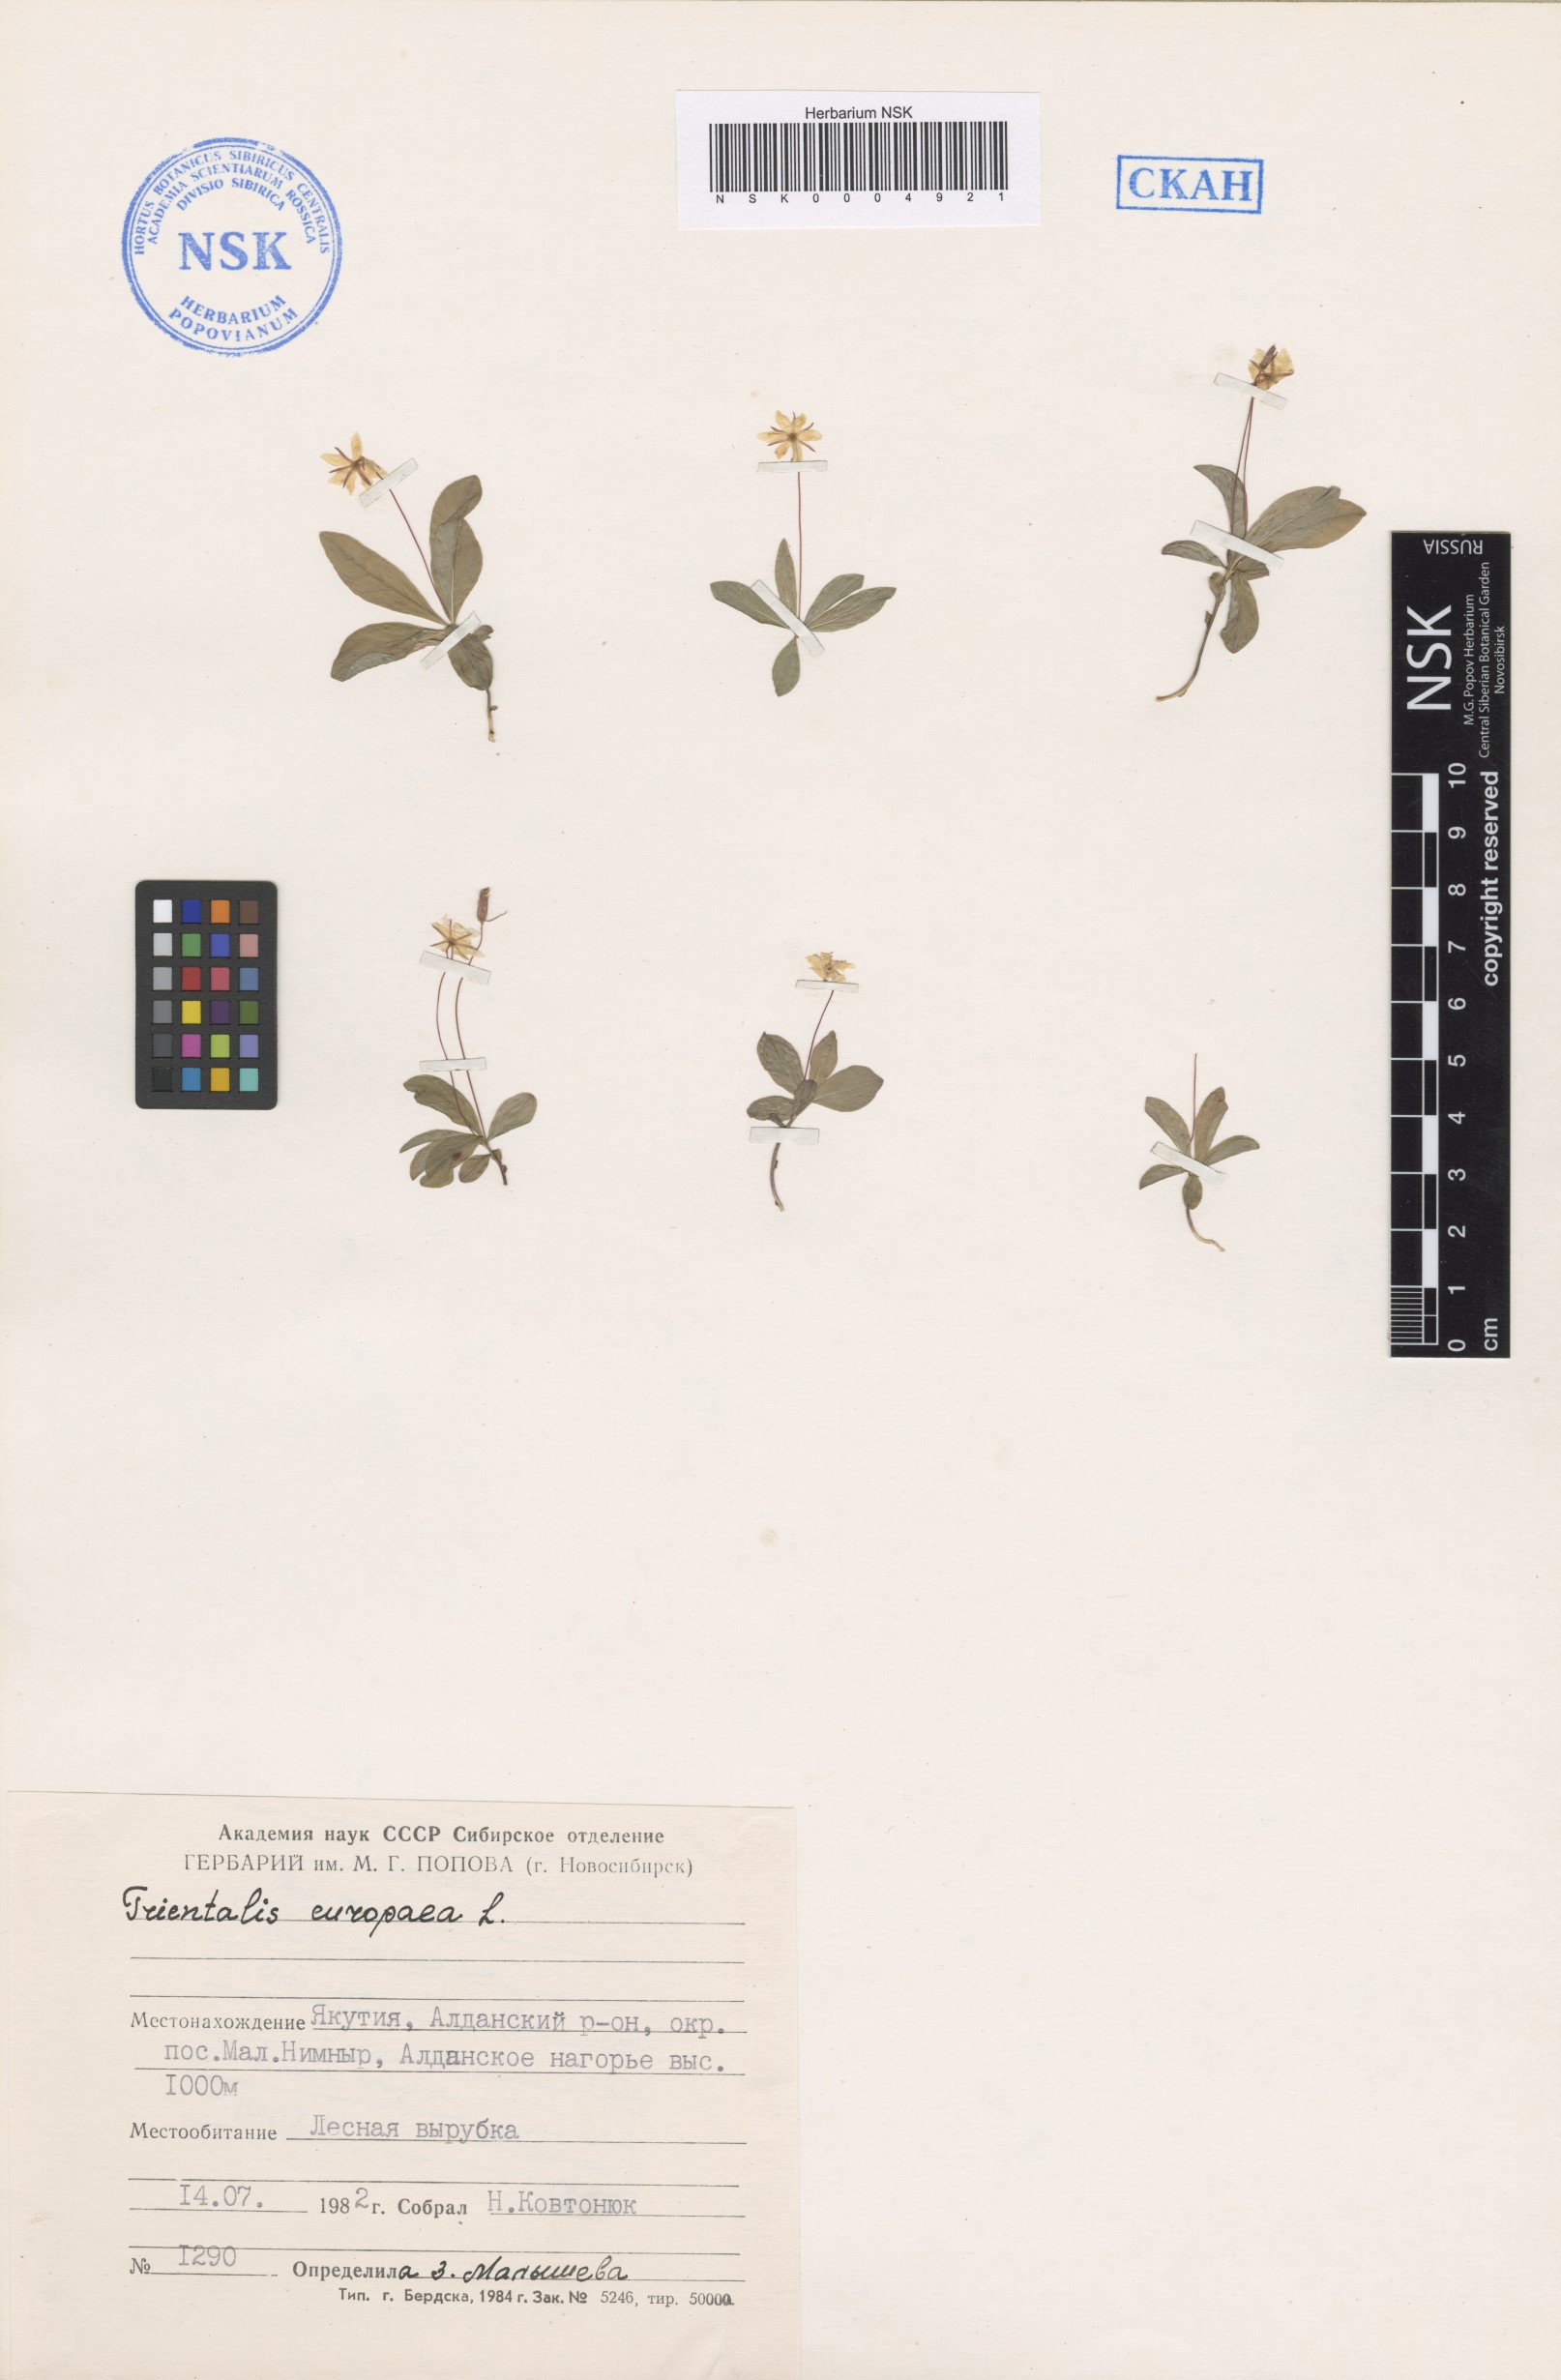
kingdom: Plantae
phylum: Tracheophyta
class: Magnoliopsida
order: Ericales
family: Primulaceae
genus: Lysimachia
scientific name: Lysimachia europaea
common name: Arctic starflower
